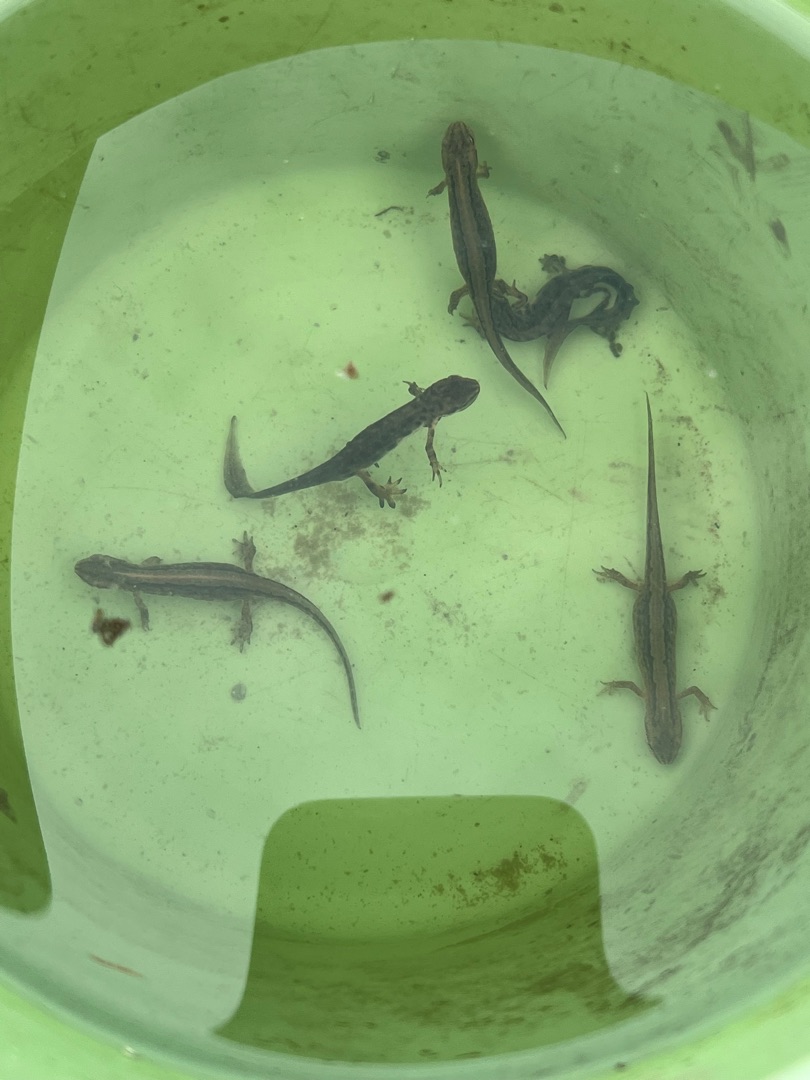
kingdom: Animalia
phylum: Chordata
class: Amphibia
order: Caudata
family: Salamandridae
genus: Lissotriton
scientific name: Lissotriton vulgaris
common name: Lille vandsalamander
